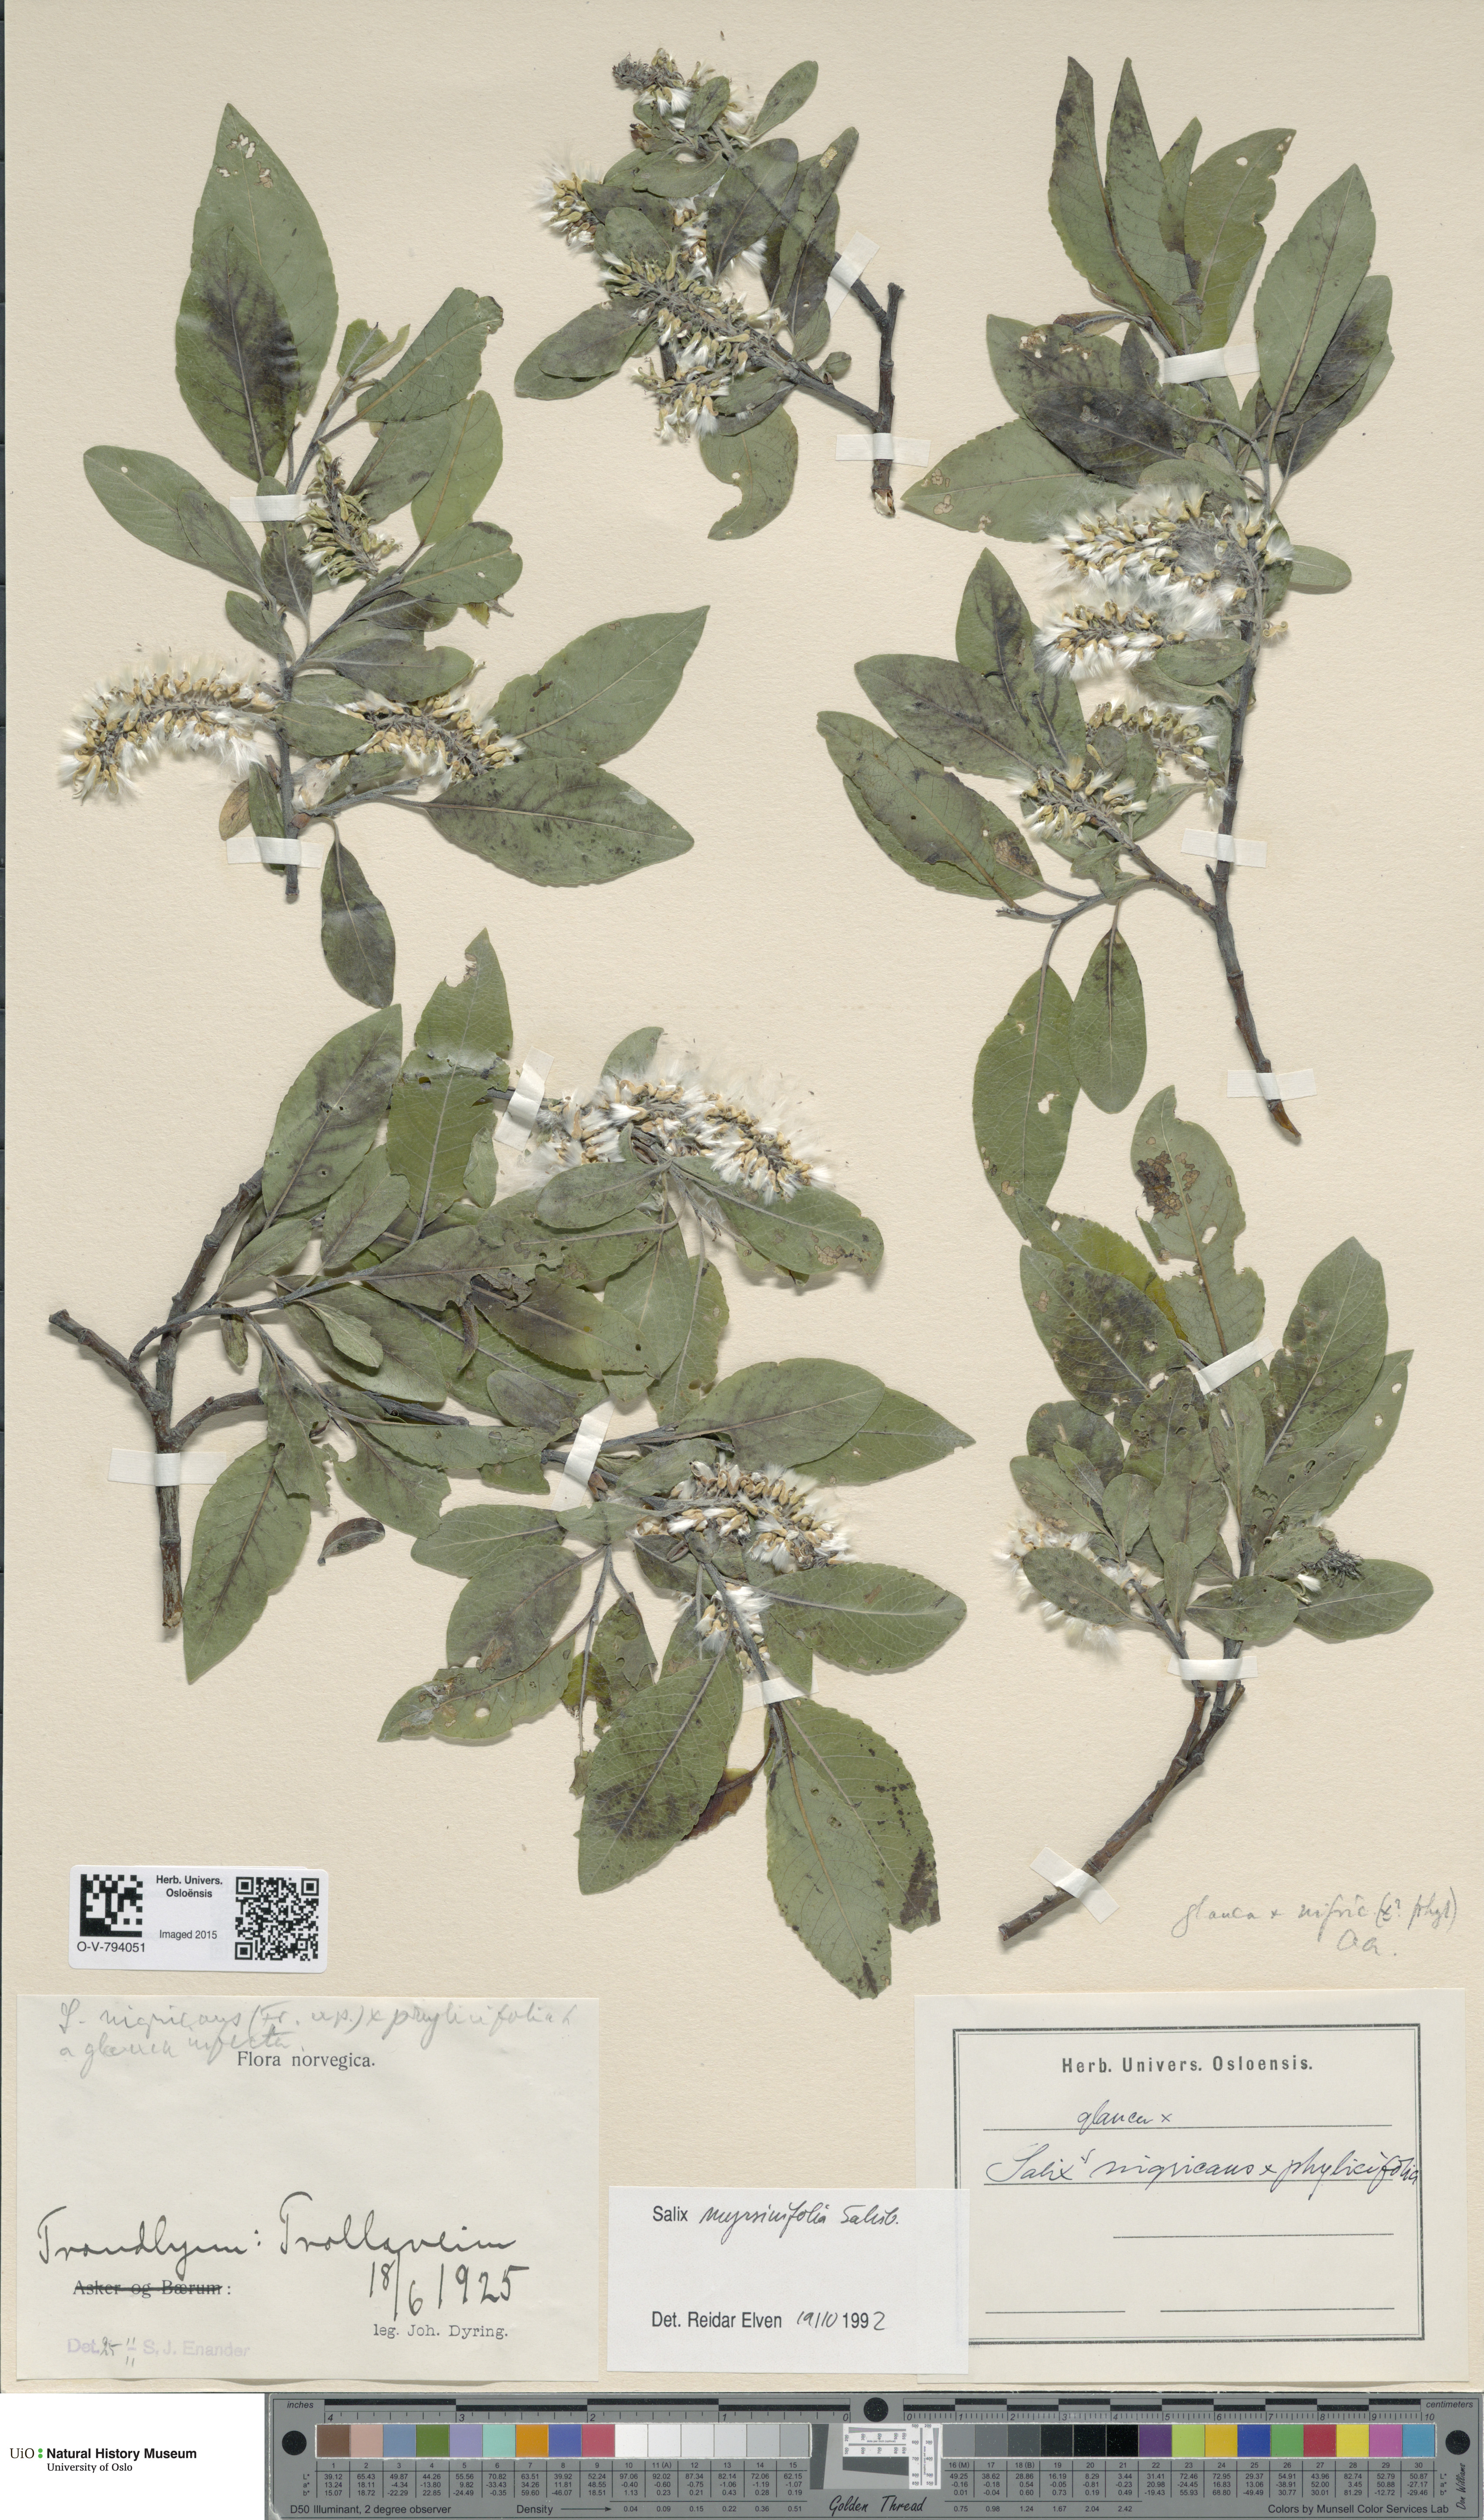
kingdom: Plantae
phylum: Tracheophyta
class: Magnoliopsida
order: Malpighiales
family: Salicaceae
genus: Salix
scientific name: Salix myrsinifolia
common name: Dark-leaved willow
